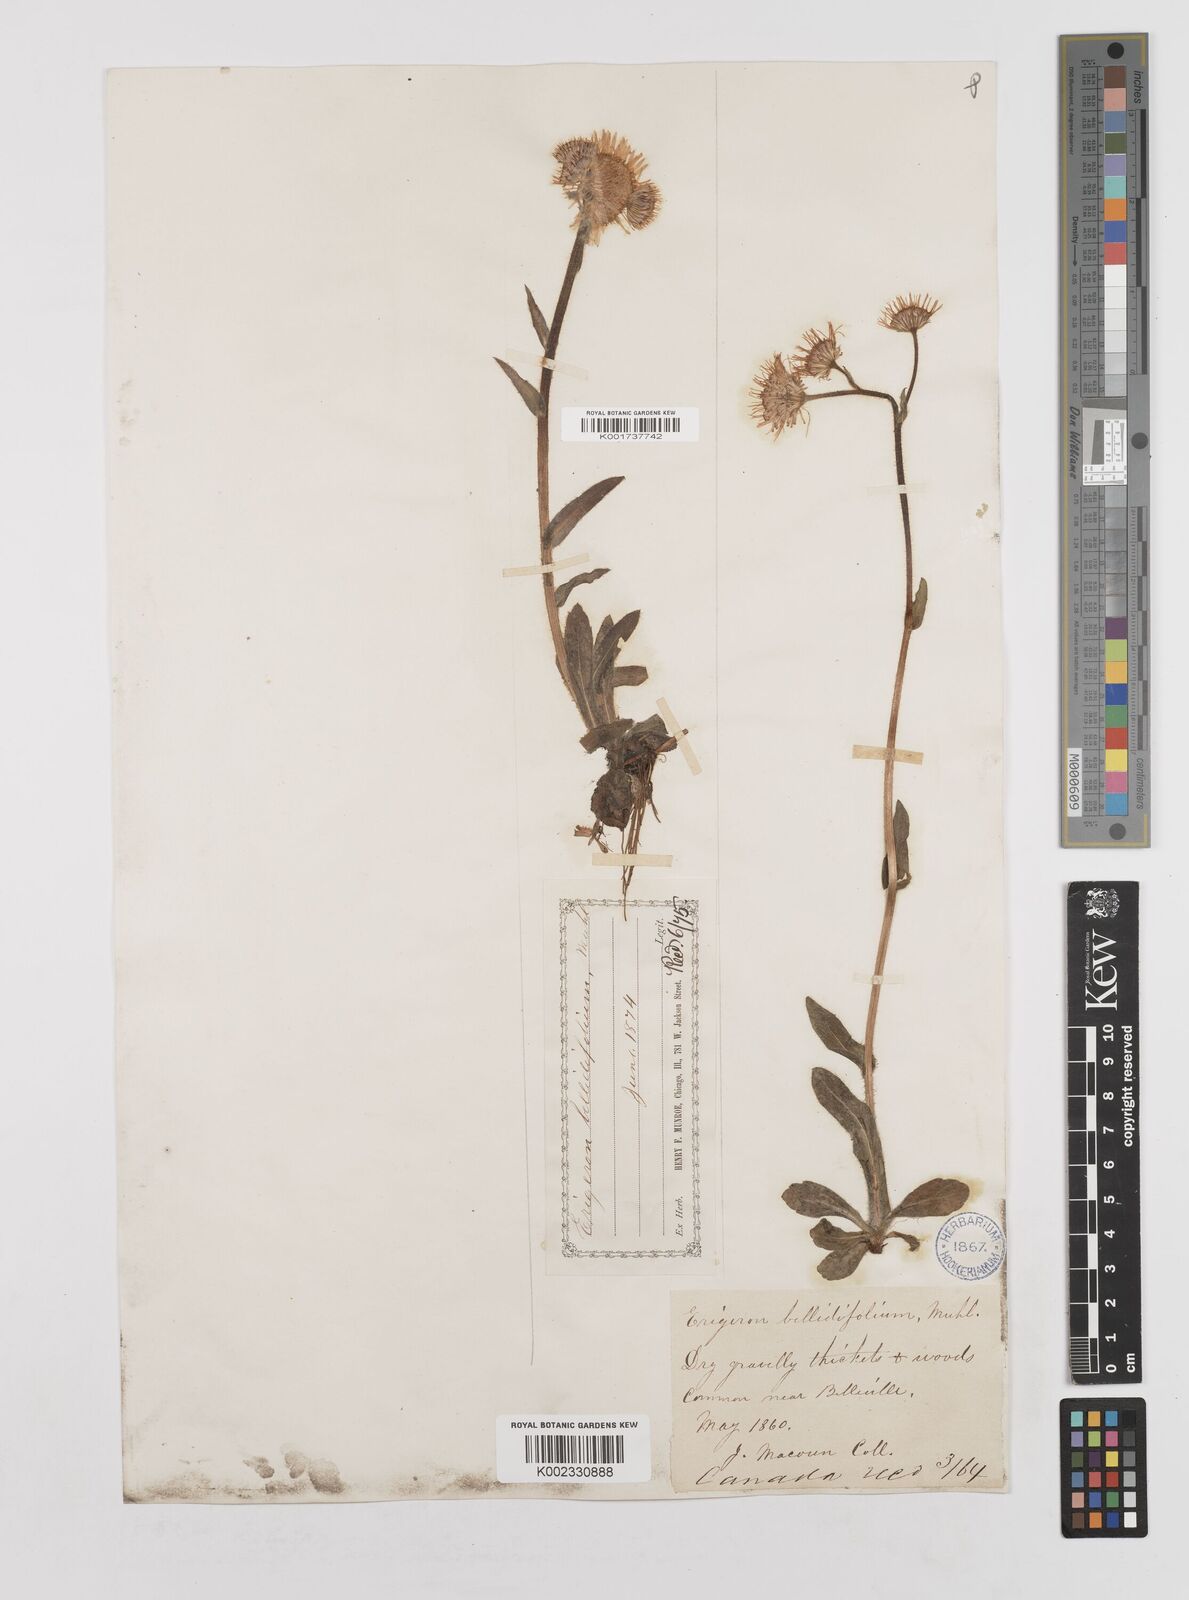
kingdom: Plantae
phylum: Tracheophyta
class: Magnoliopsida
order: Asterales
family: Asteraceae
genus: Erigeron
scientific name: Erigeron pulchellus
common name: Hairy fleabane
